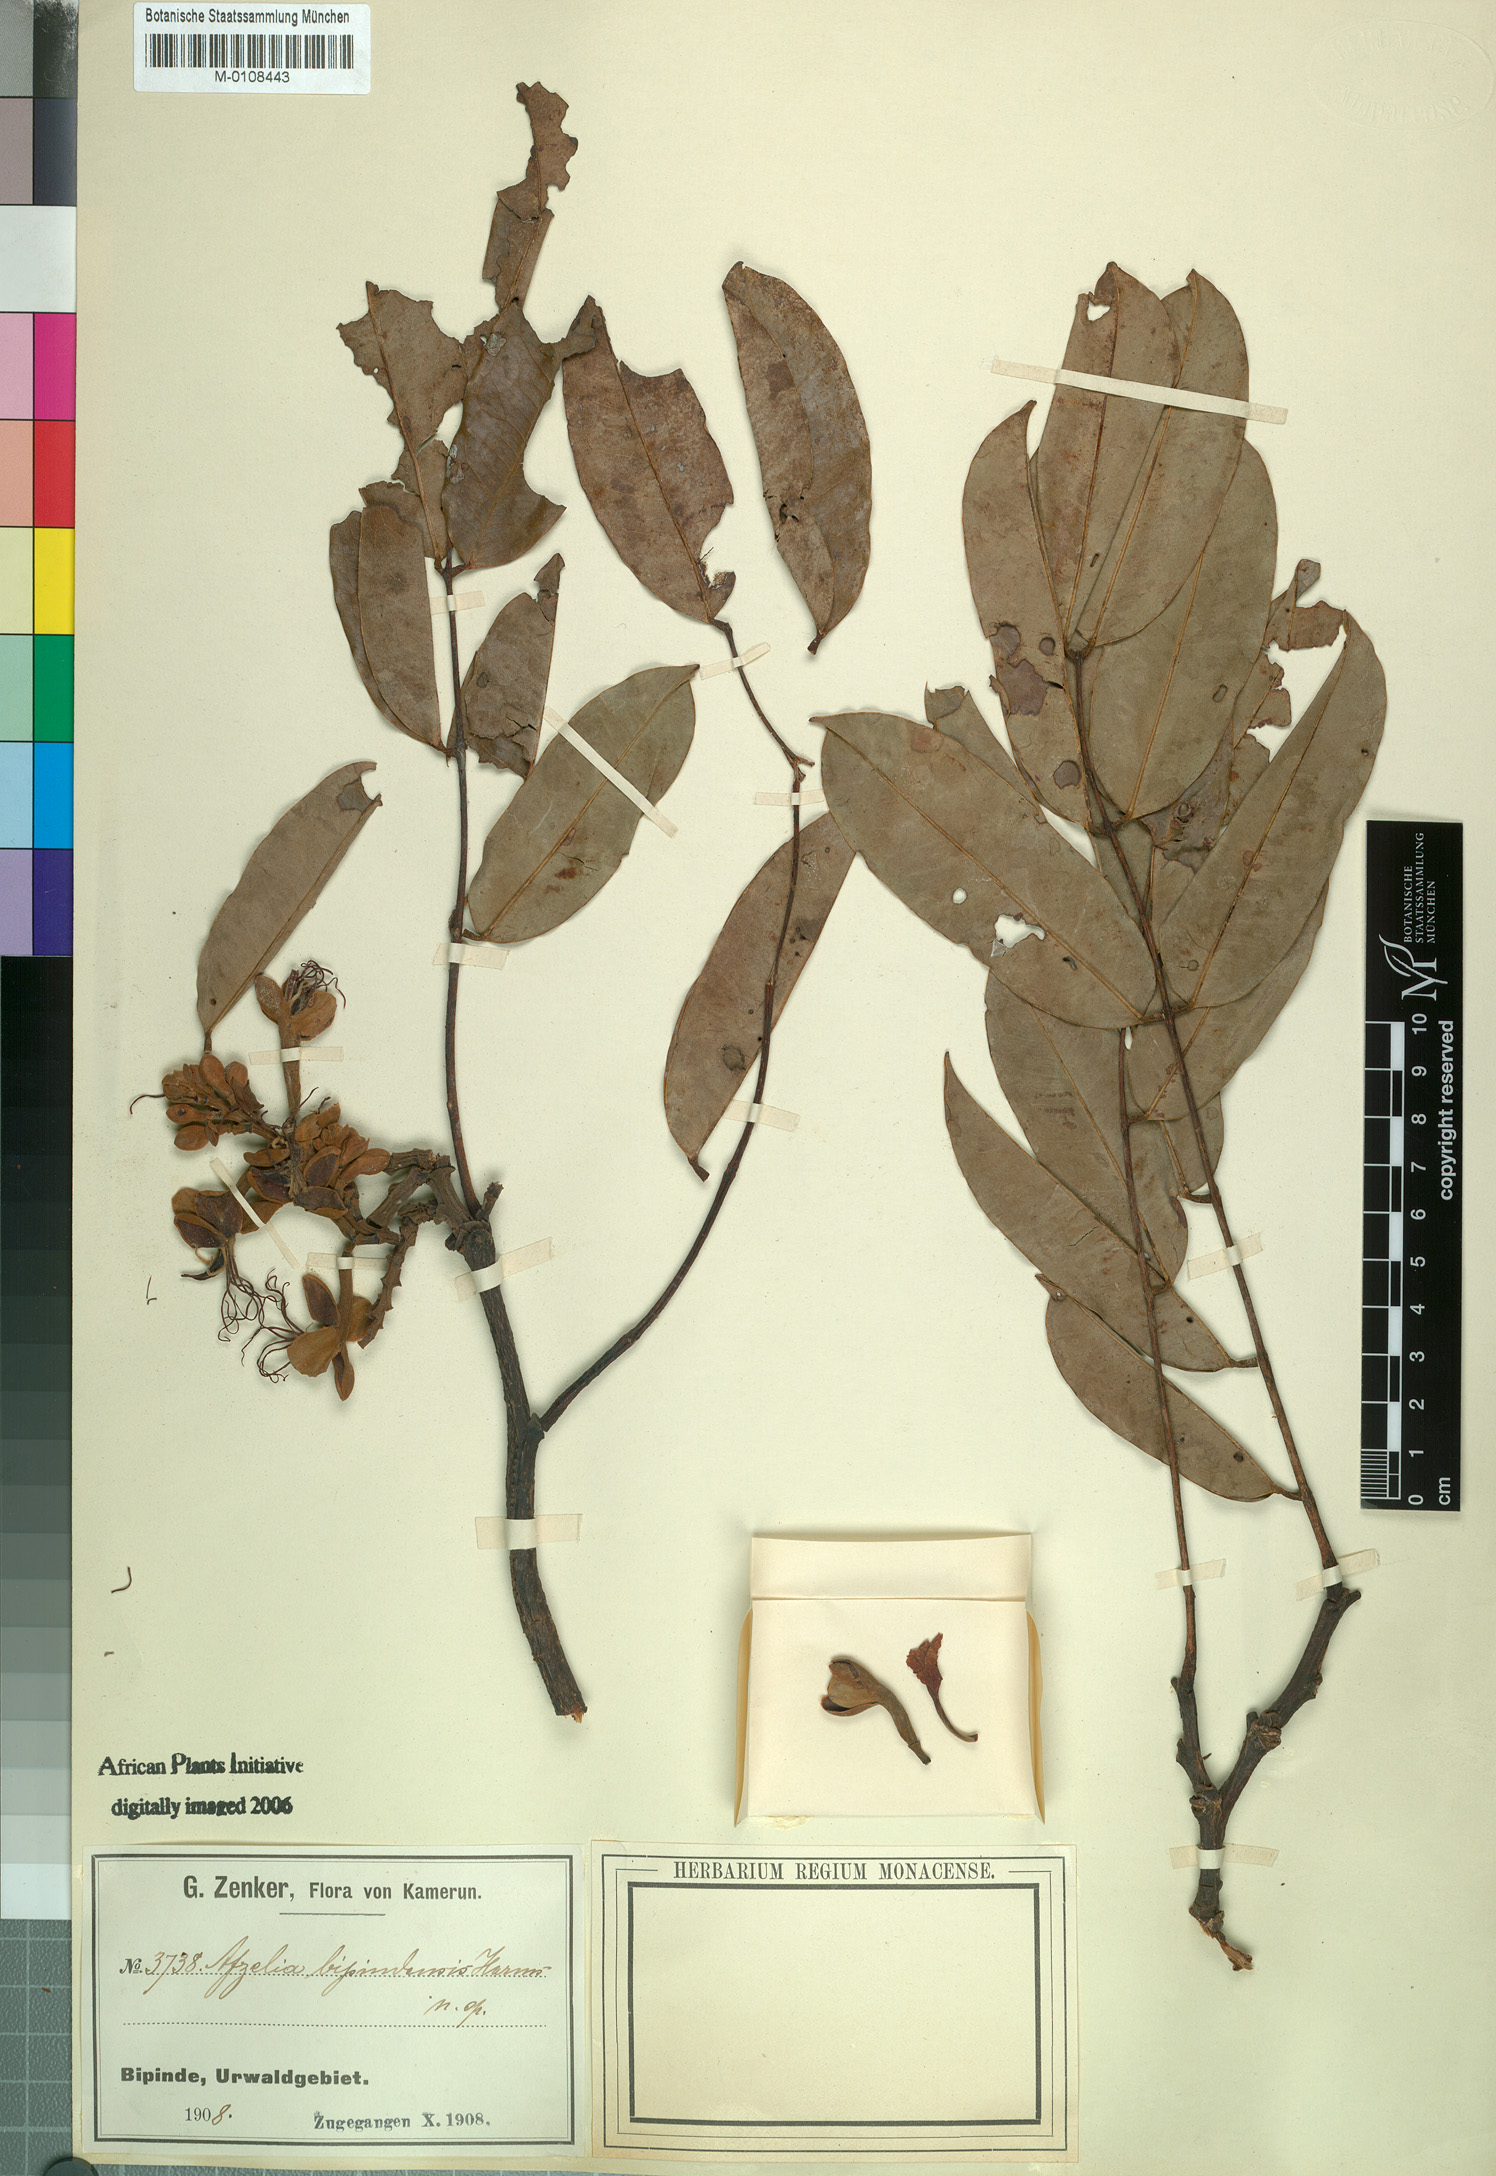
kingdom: Plantae
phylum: Tracheophyta
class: Magnoliopsida
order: Fabales
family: Fabaceae
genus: Afzelia
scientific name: Afzelia bipindensis
